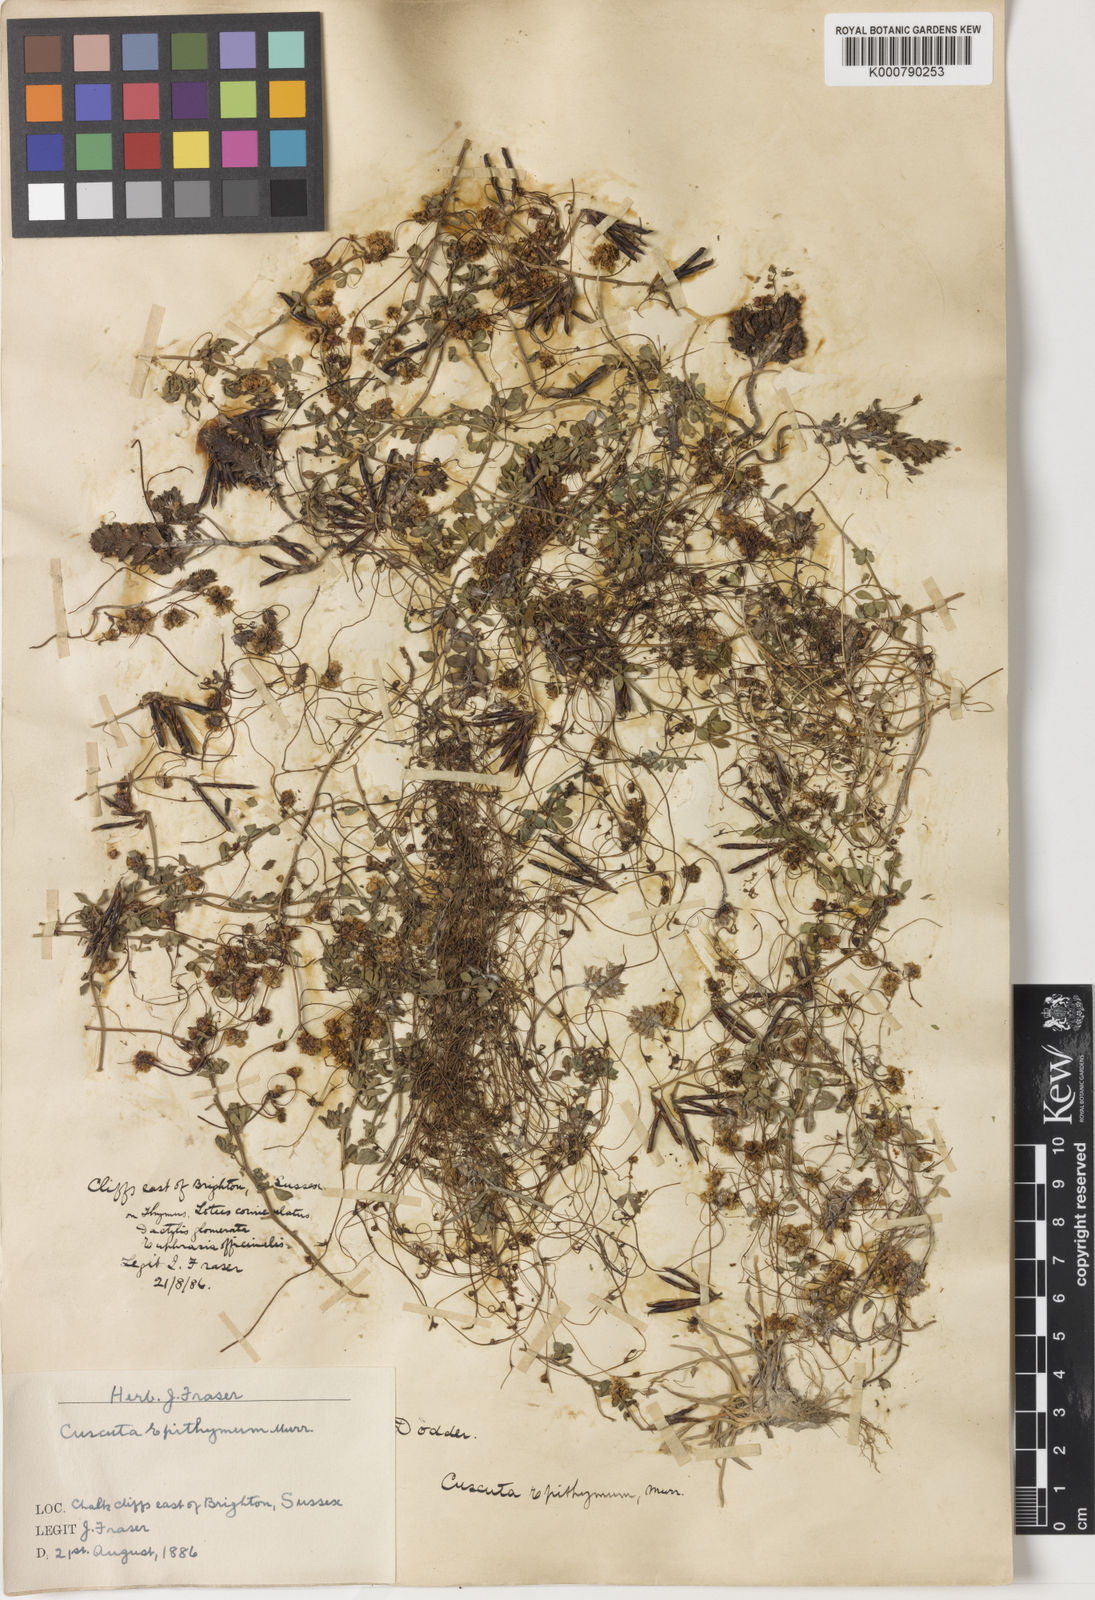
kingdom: Plantae
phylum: Tracheophyta
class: Magnoliopsida
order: Solanales
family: Convolvulaceae
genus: Cuscuta
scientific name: Cuscuta epithymum
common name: Clover dodder
